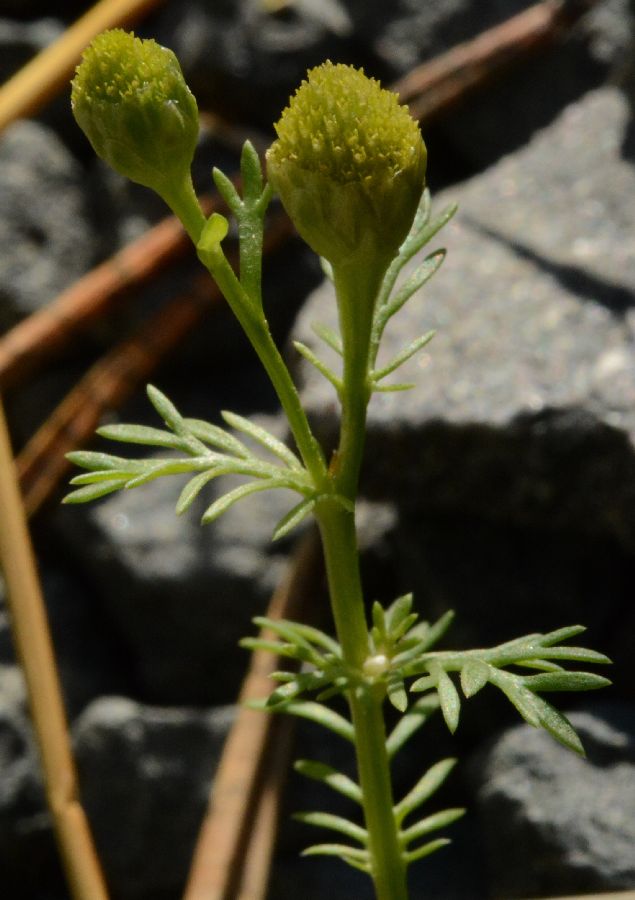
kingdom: Plantae
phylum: Tracheophyta
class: Magnoliopsida
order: Asterales
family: Asteraceae
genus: Matricaria
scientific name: Matricaria discoidea
